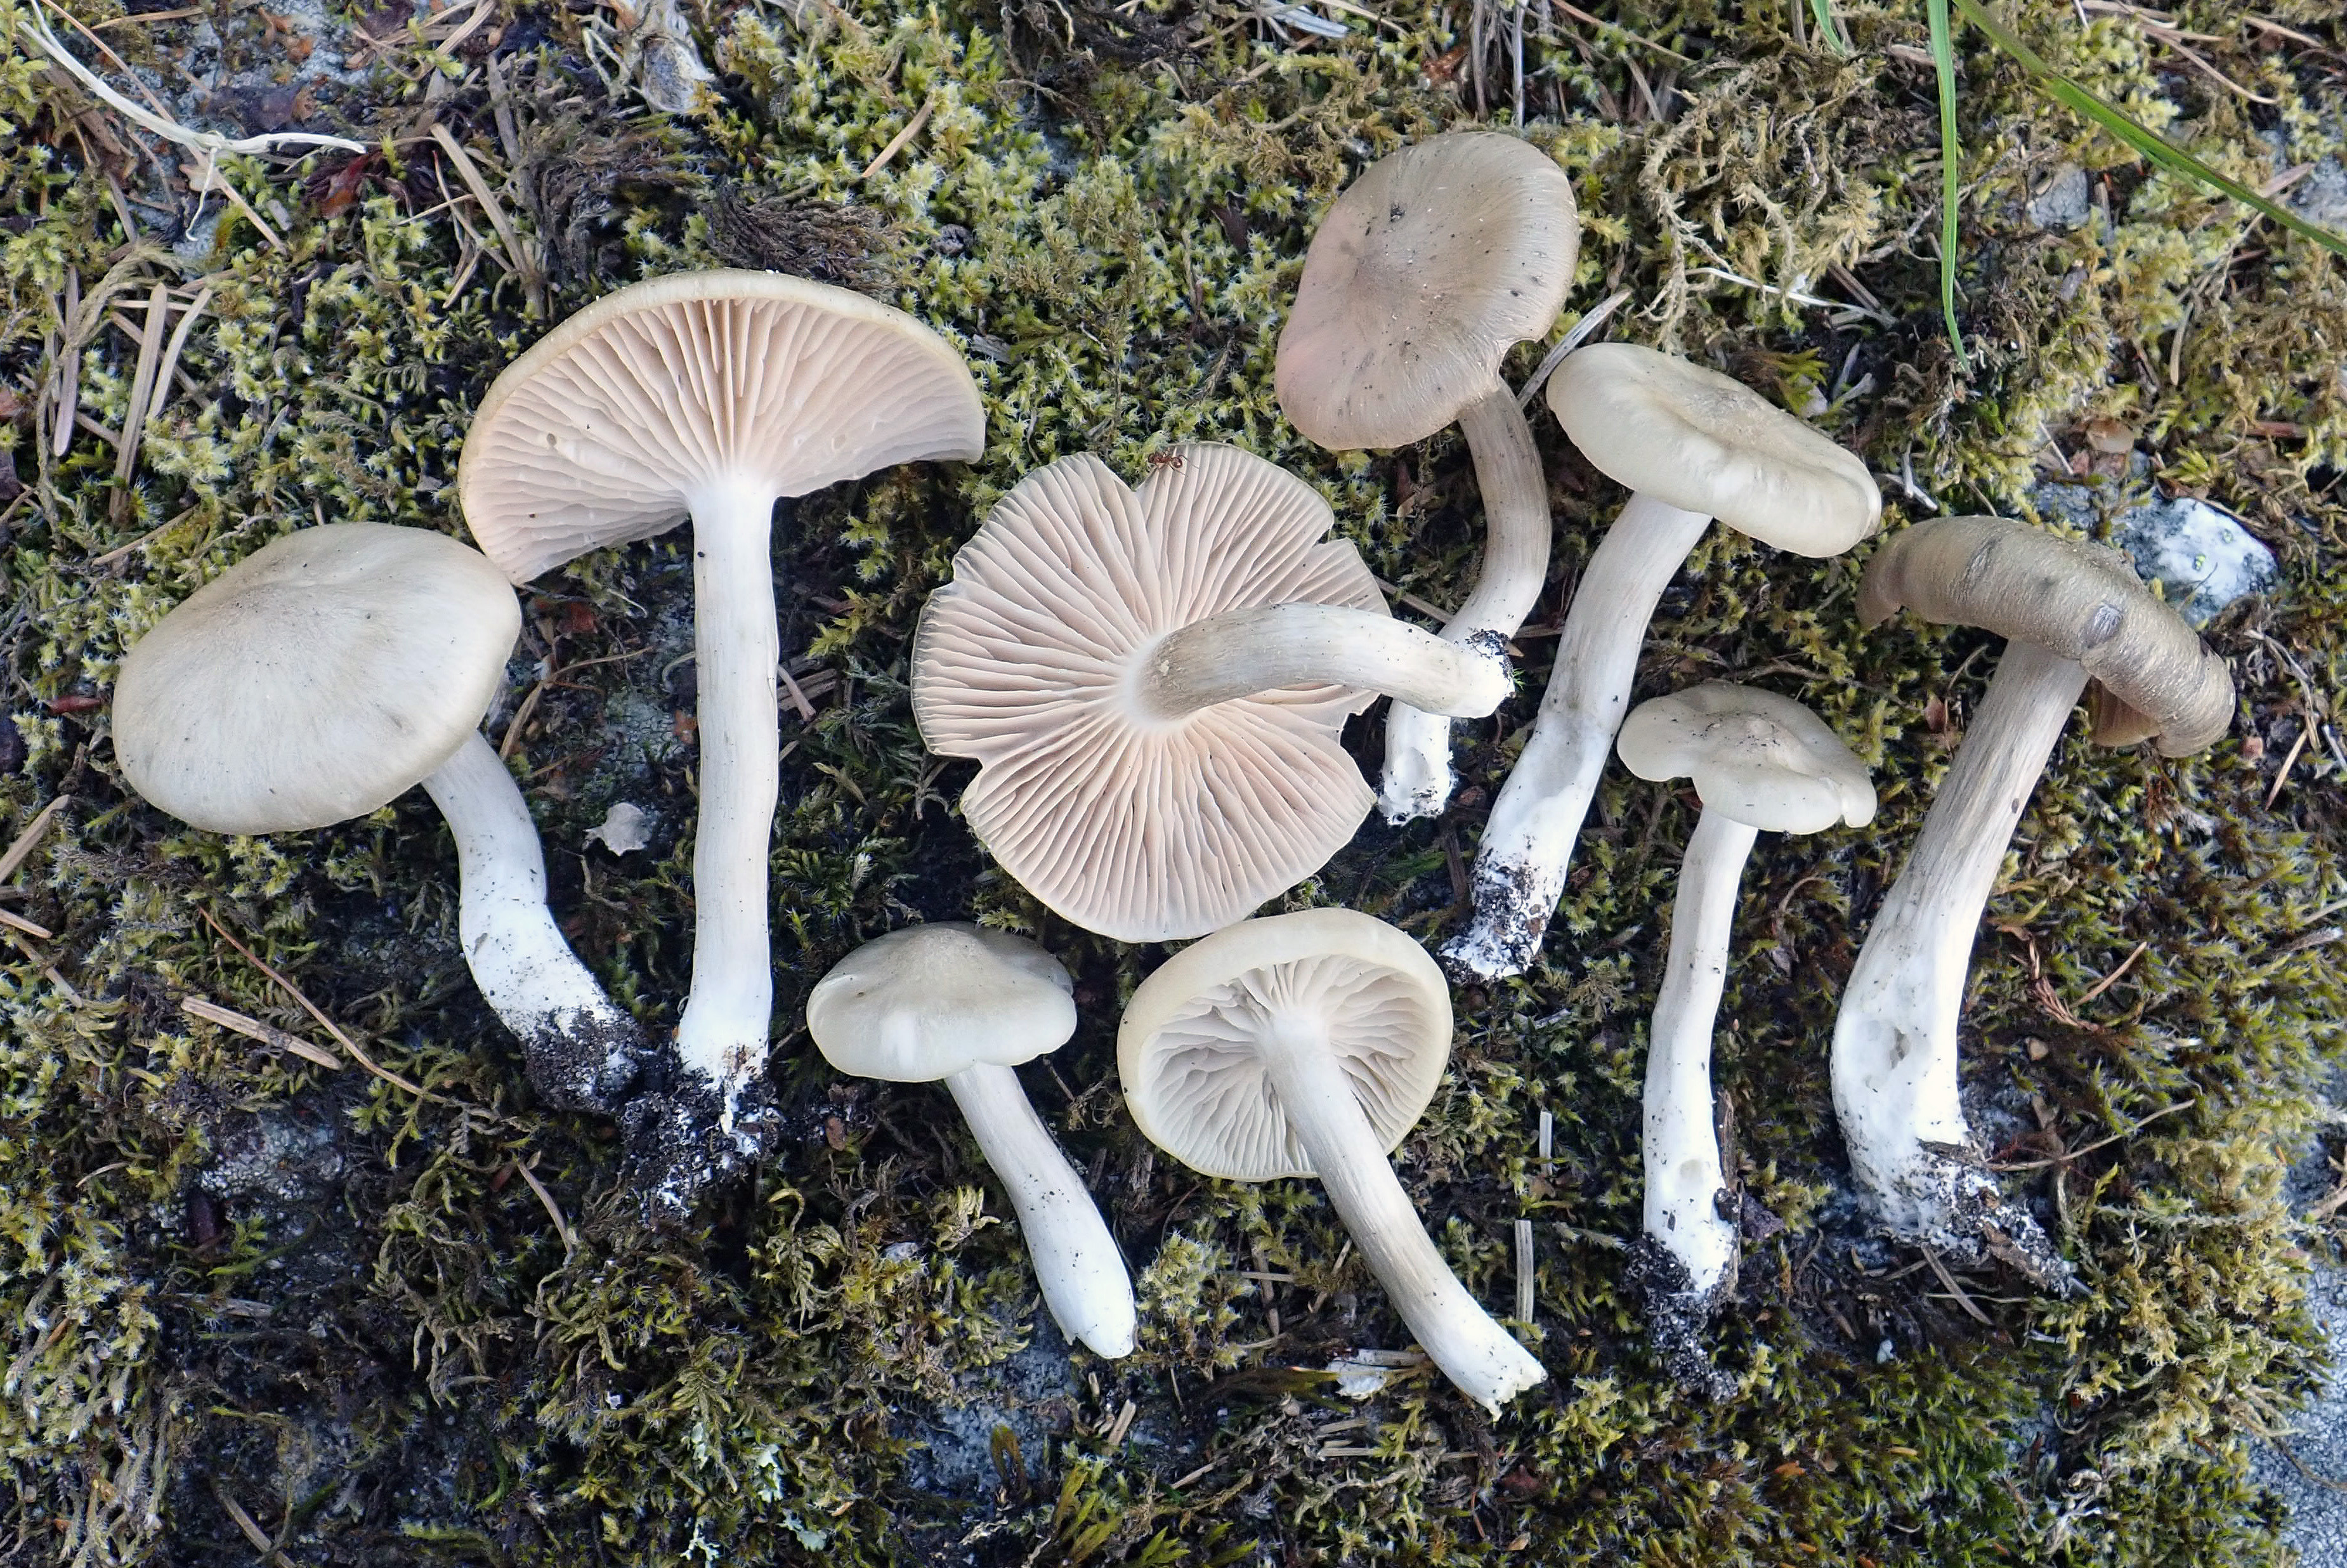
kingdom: Fungi
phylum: Basidiomycota
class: Agaricomycetes
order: Agaricales
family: Entolomataceae
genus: Entoloma
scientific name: Entoloma clypeatum
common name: Shield pinkgill
